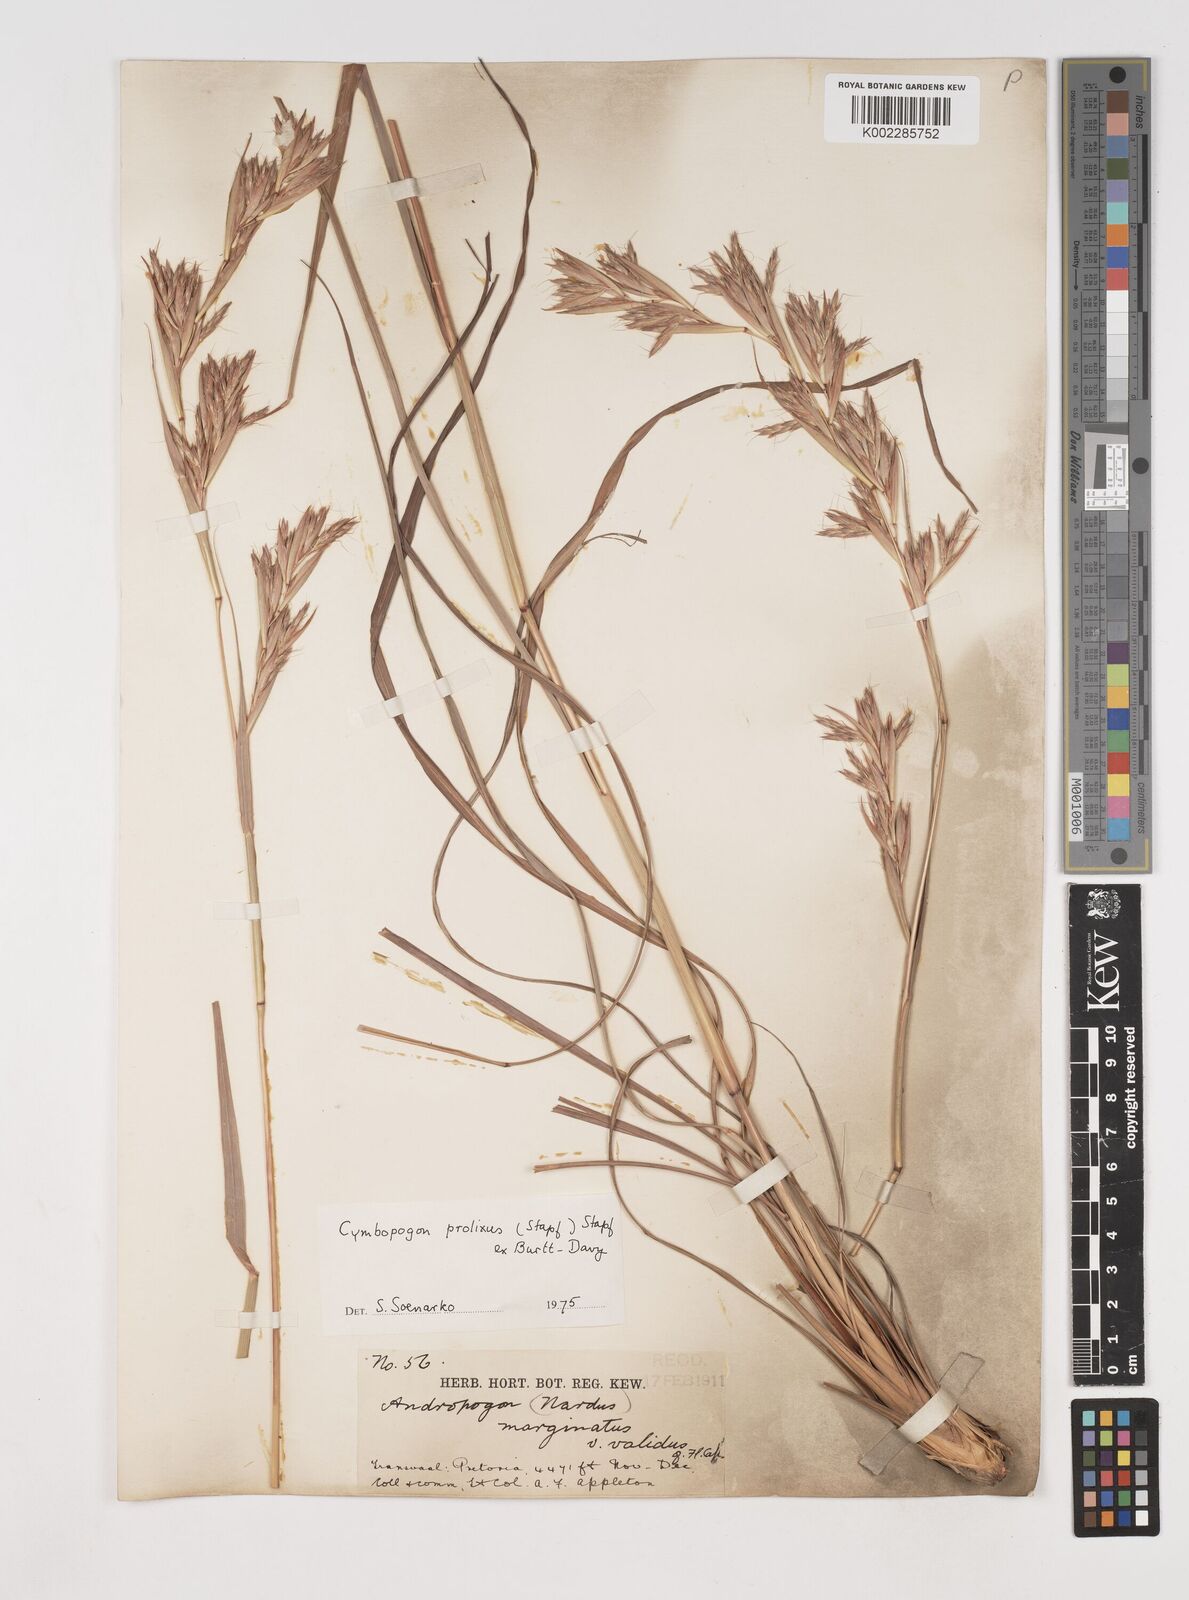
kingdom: Plantae
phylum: Tracheophyta
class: Liliopsida
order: Poales
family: Poaceae
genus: Cymbopogon
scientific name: Cymbopogon nardus
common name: Giant turpentine grass
